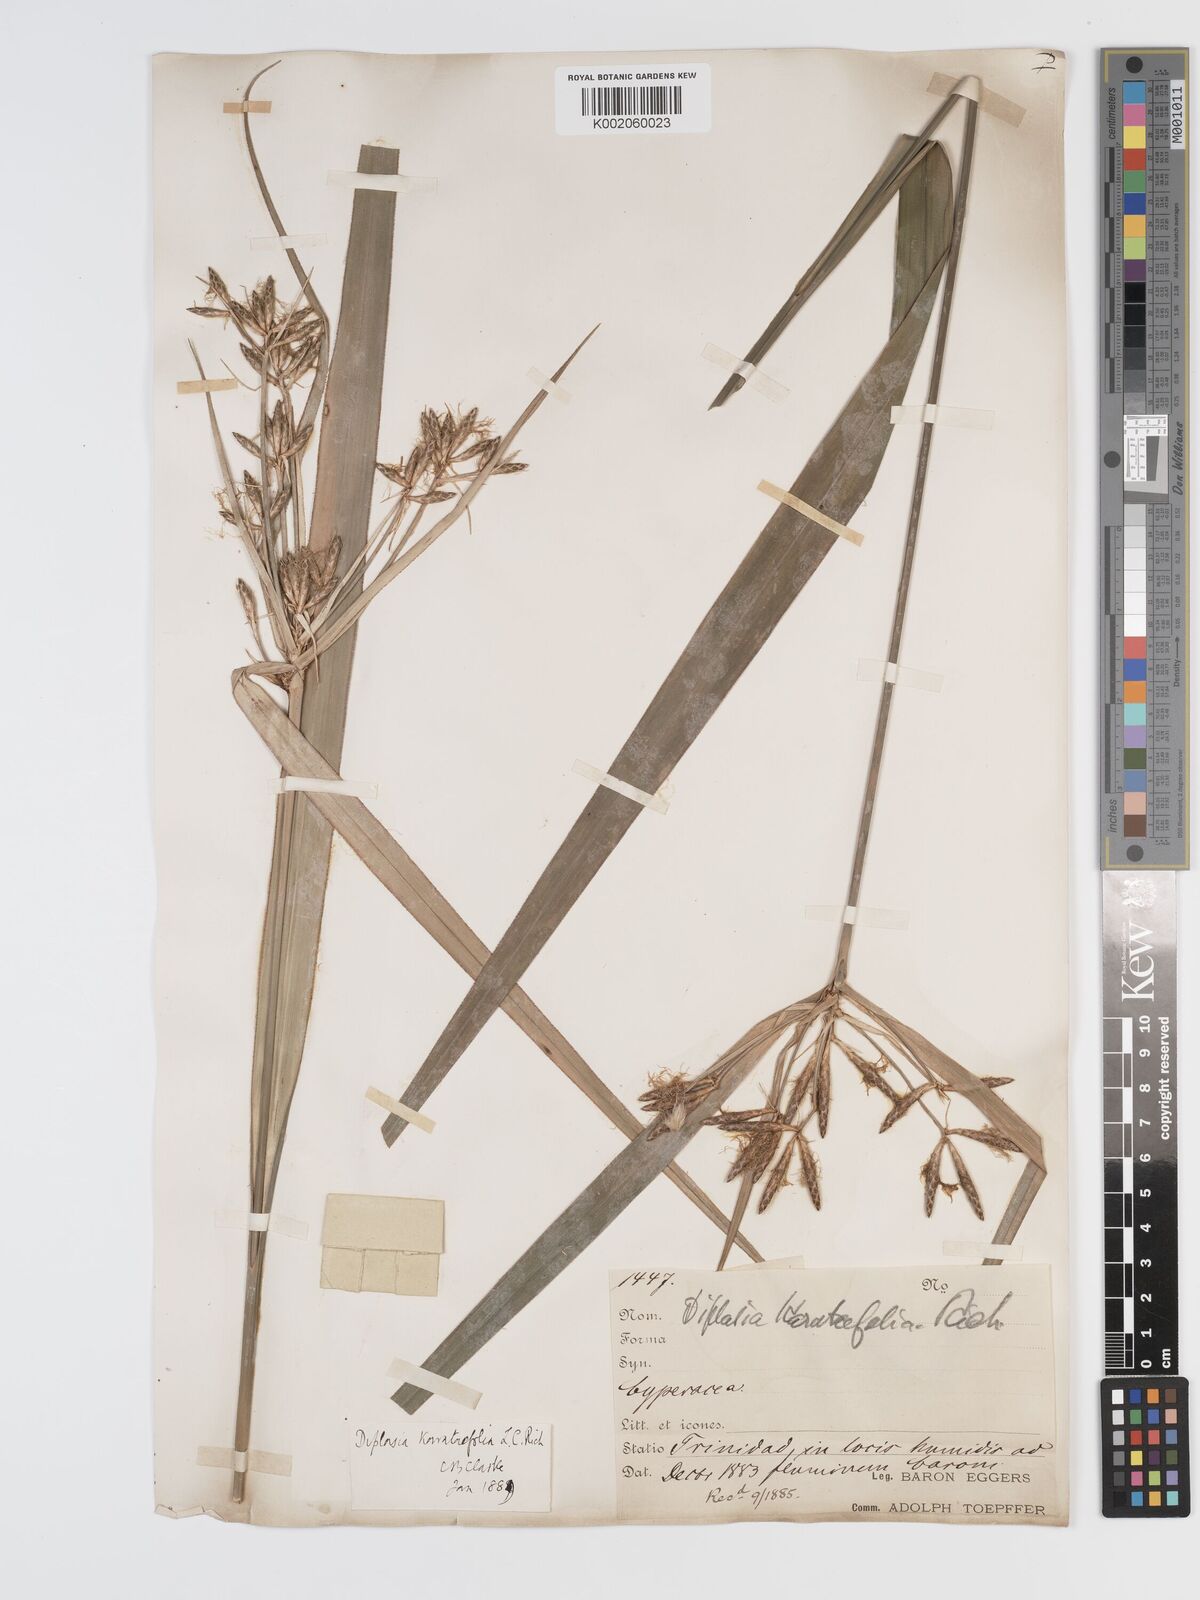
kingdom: Plantae
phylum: Tracheophyta
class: Liliopsida
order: Poales
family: Cyperaceae
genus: Diplasia
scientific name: Diplasia karatifolia
